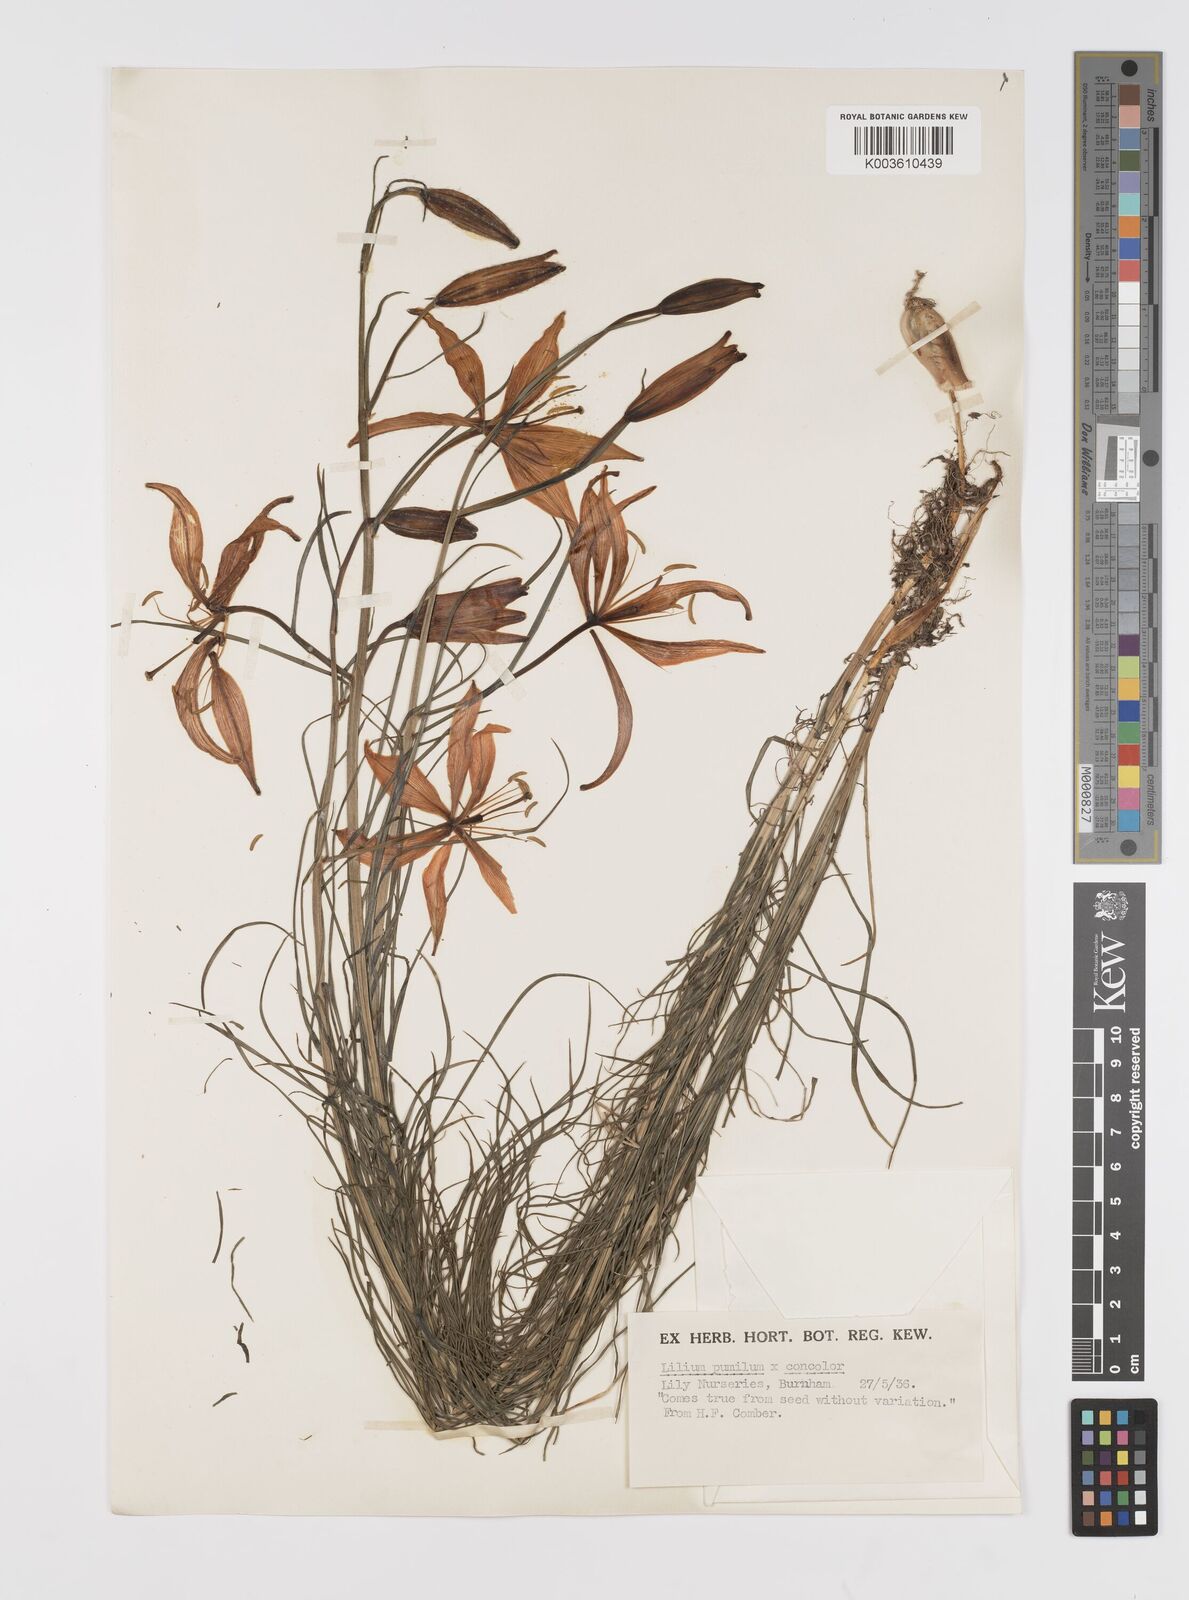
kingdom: Plantae
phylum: Tracheophyta
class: Liliopsida
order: Liliales
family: Liliaceae
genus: Lilium
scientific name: Lilium pumilum
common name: Coral lily
